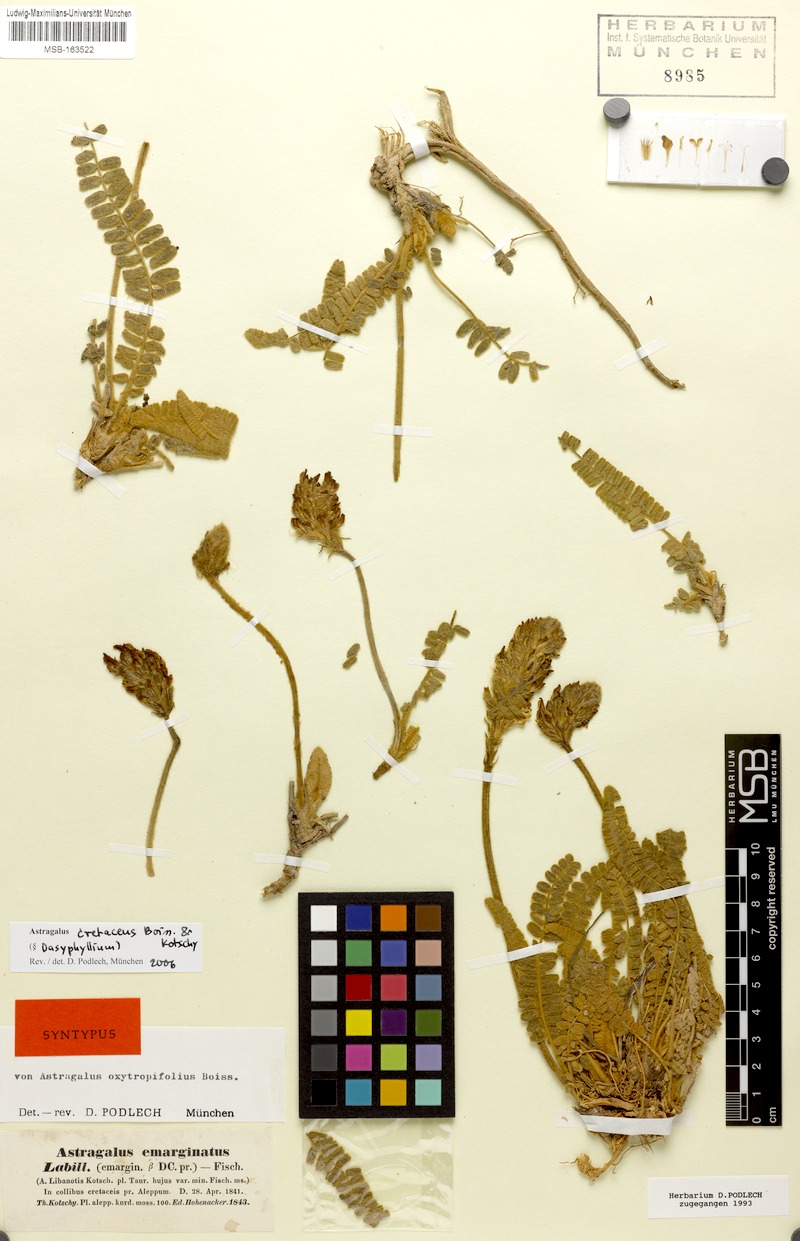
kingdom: Plantae
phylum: Tracheophyta
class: Magnoliopsida
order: Fabales
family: Fabaceae
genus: Astragalus
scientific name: Astragalus oxytropifolius
